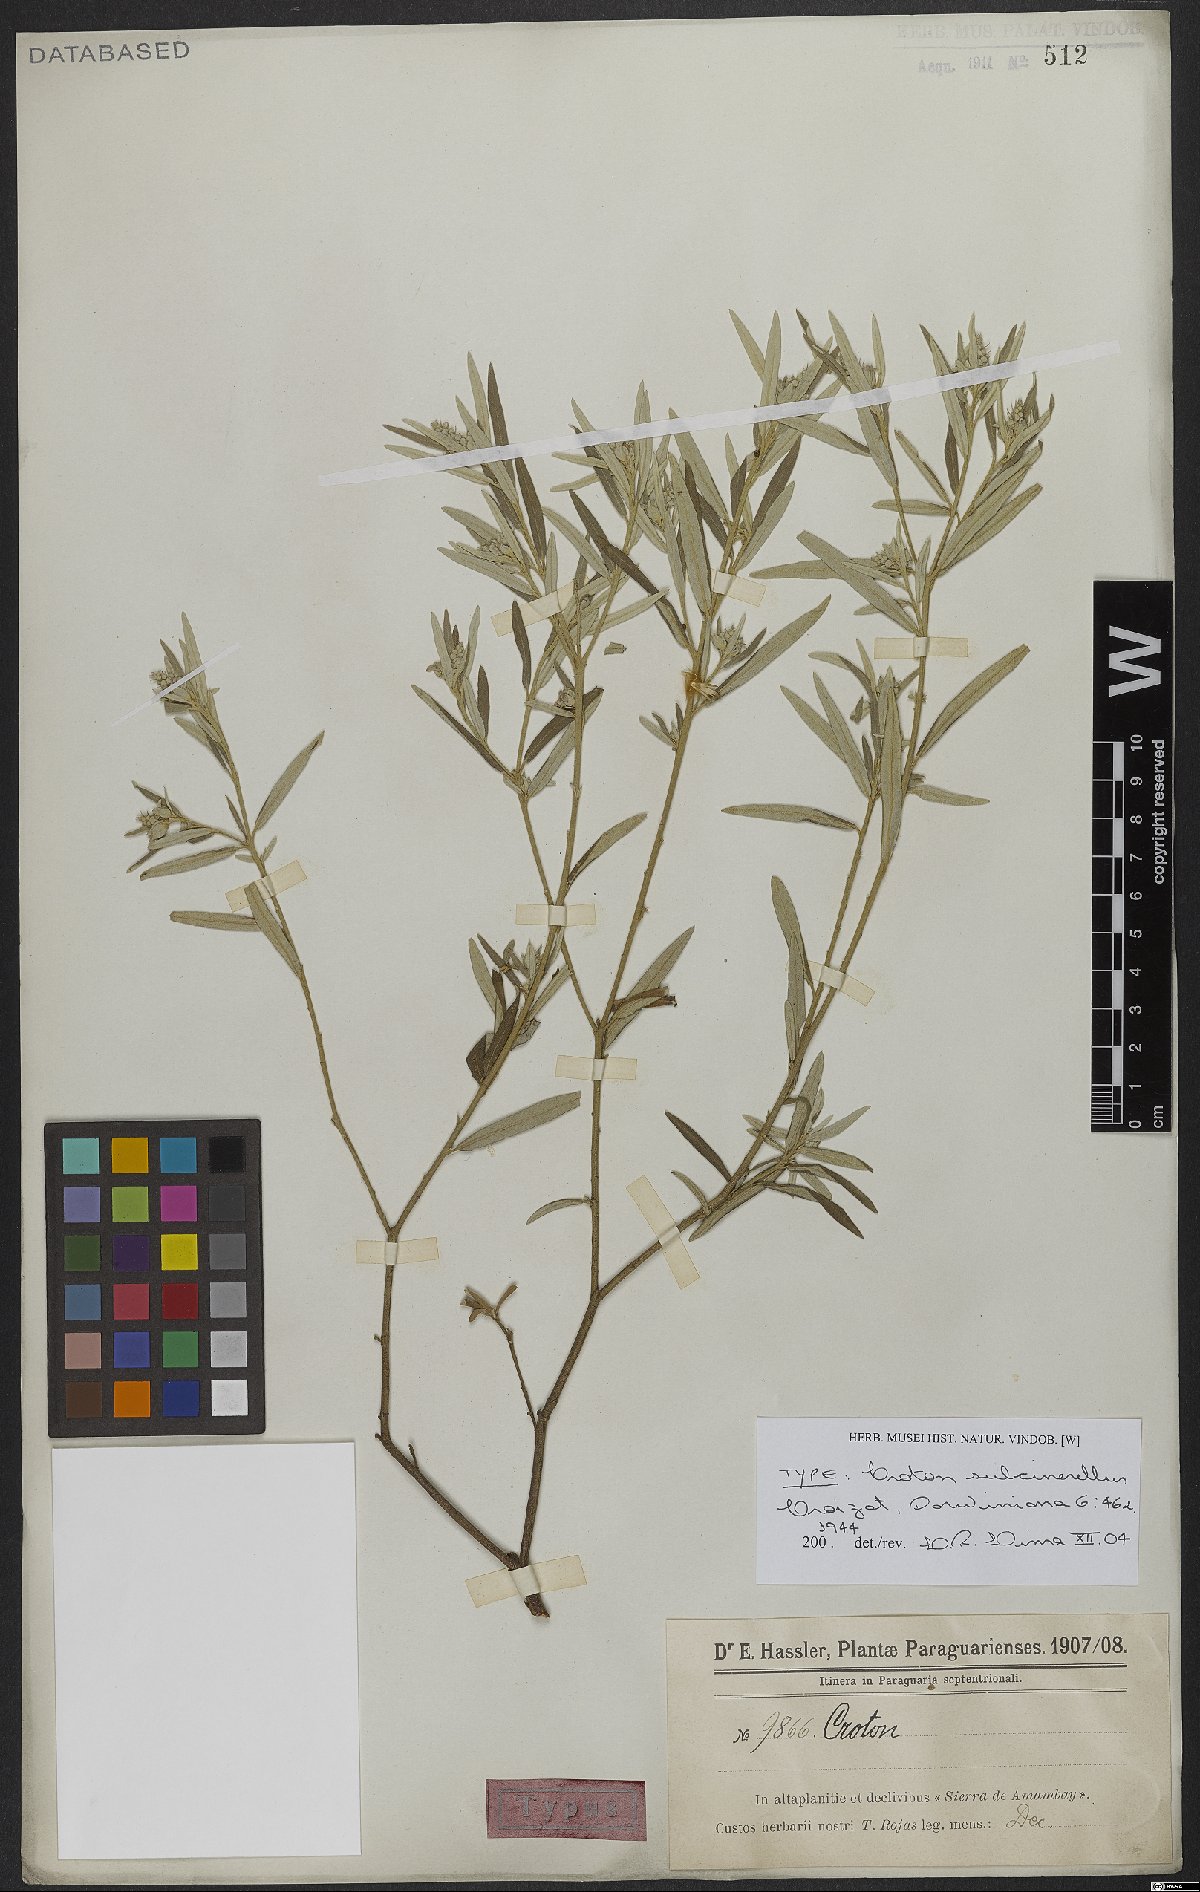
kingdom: Plantae
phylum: Tracheophyta
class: Magnoliopsida
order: Malpighiales
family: Euphorbiaceae
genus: Croton
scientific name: Croton subcinerellus
